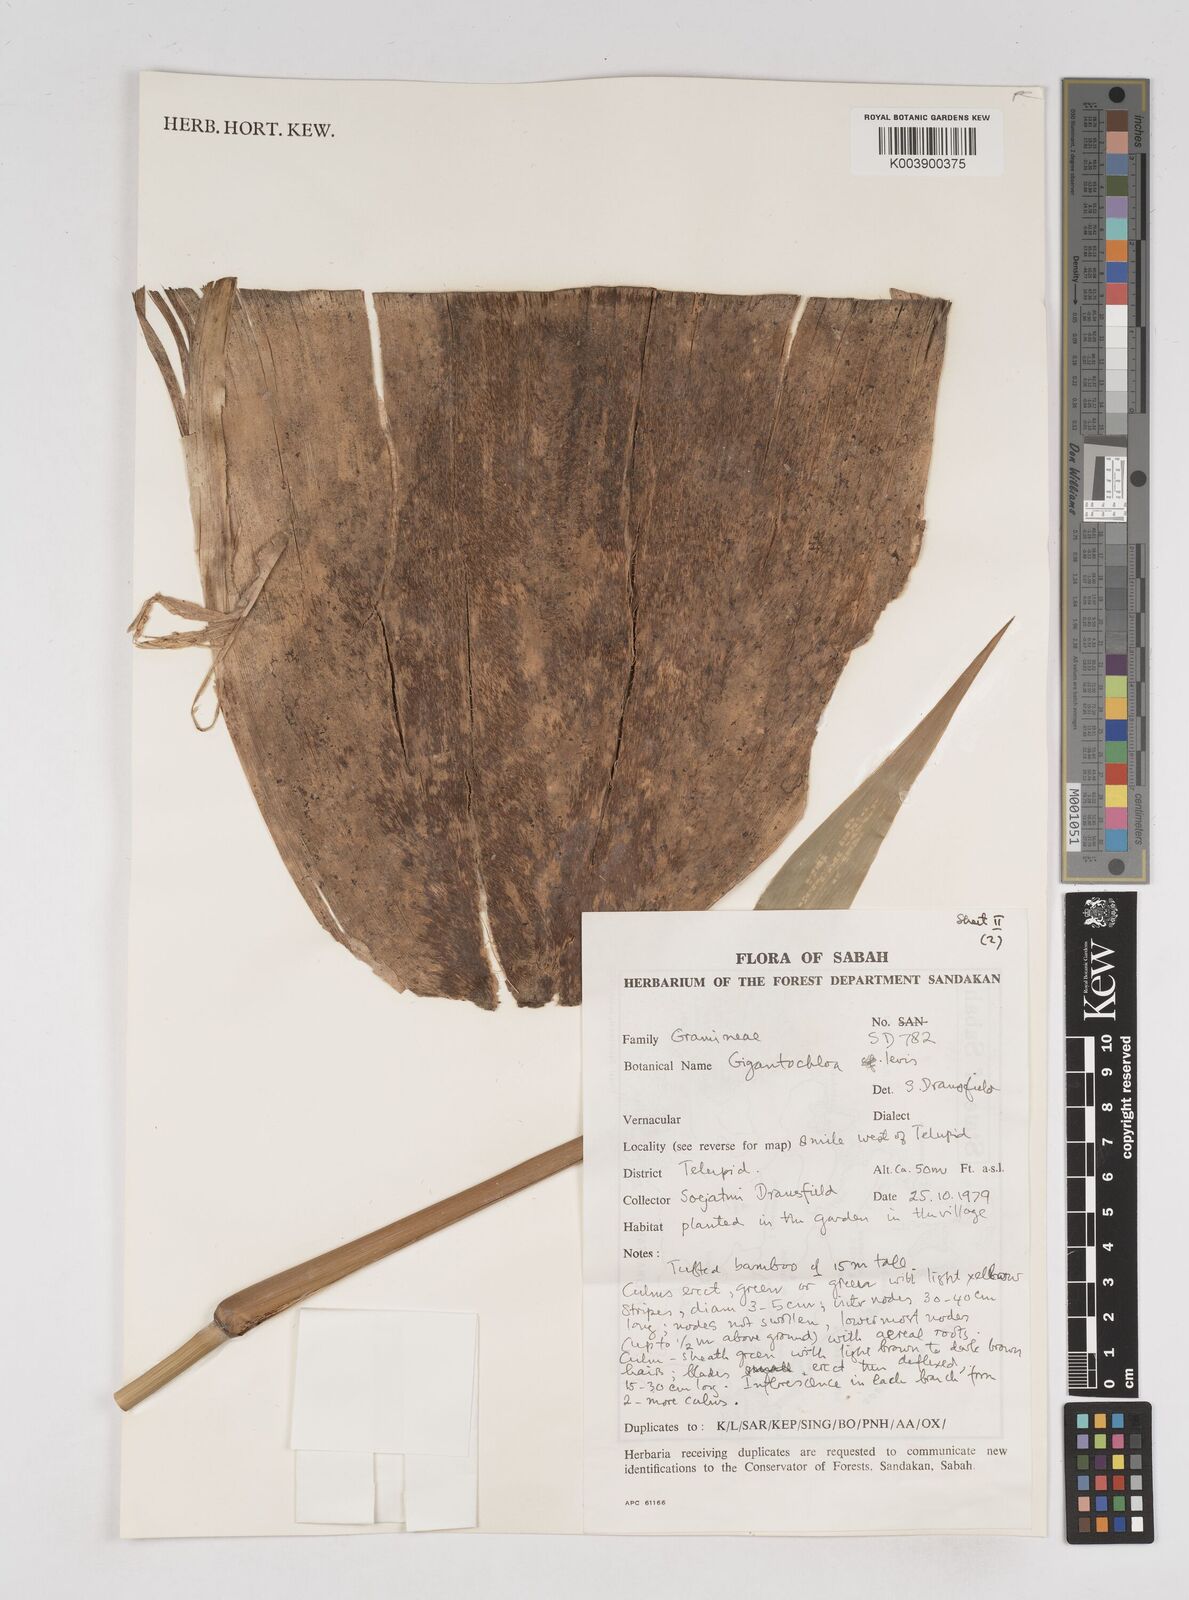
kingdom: Plantae
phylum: Tracheophyta
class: Liliopsida
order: Poales
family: Poaceae
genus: Gigantochloa
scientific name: Gigantochloa levis
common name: Smooth-shoot gigantochloa
